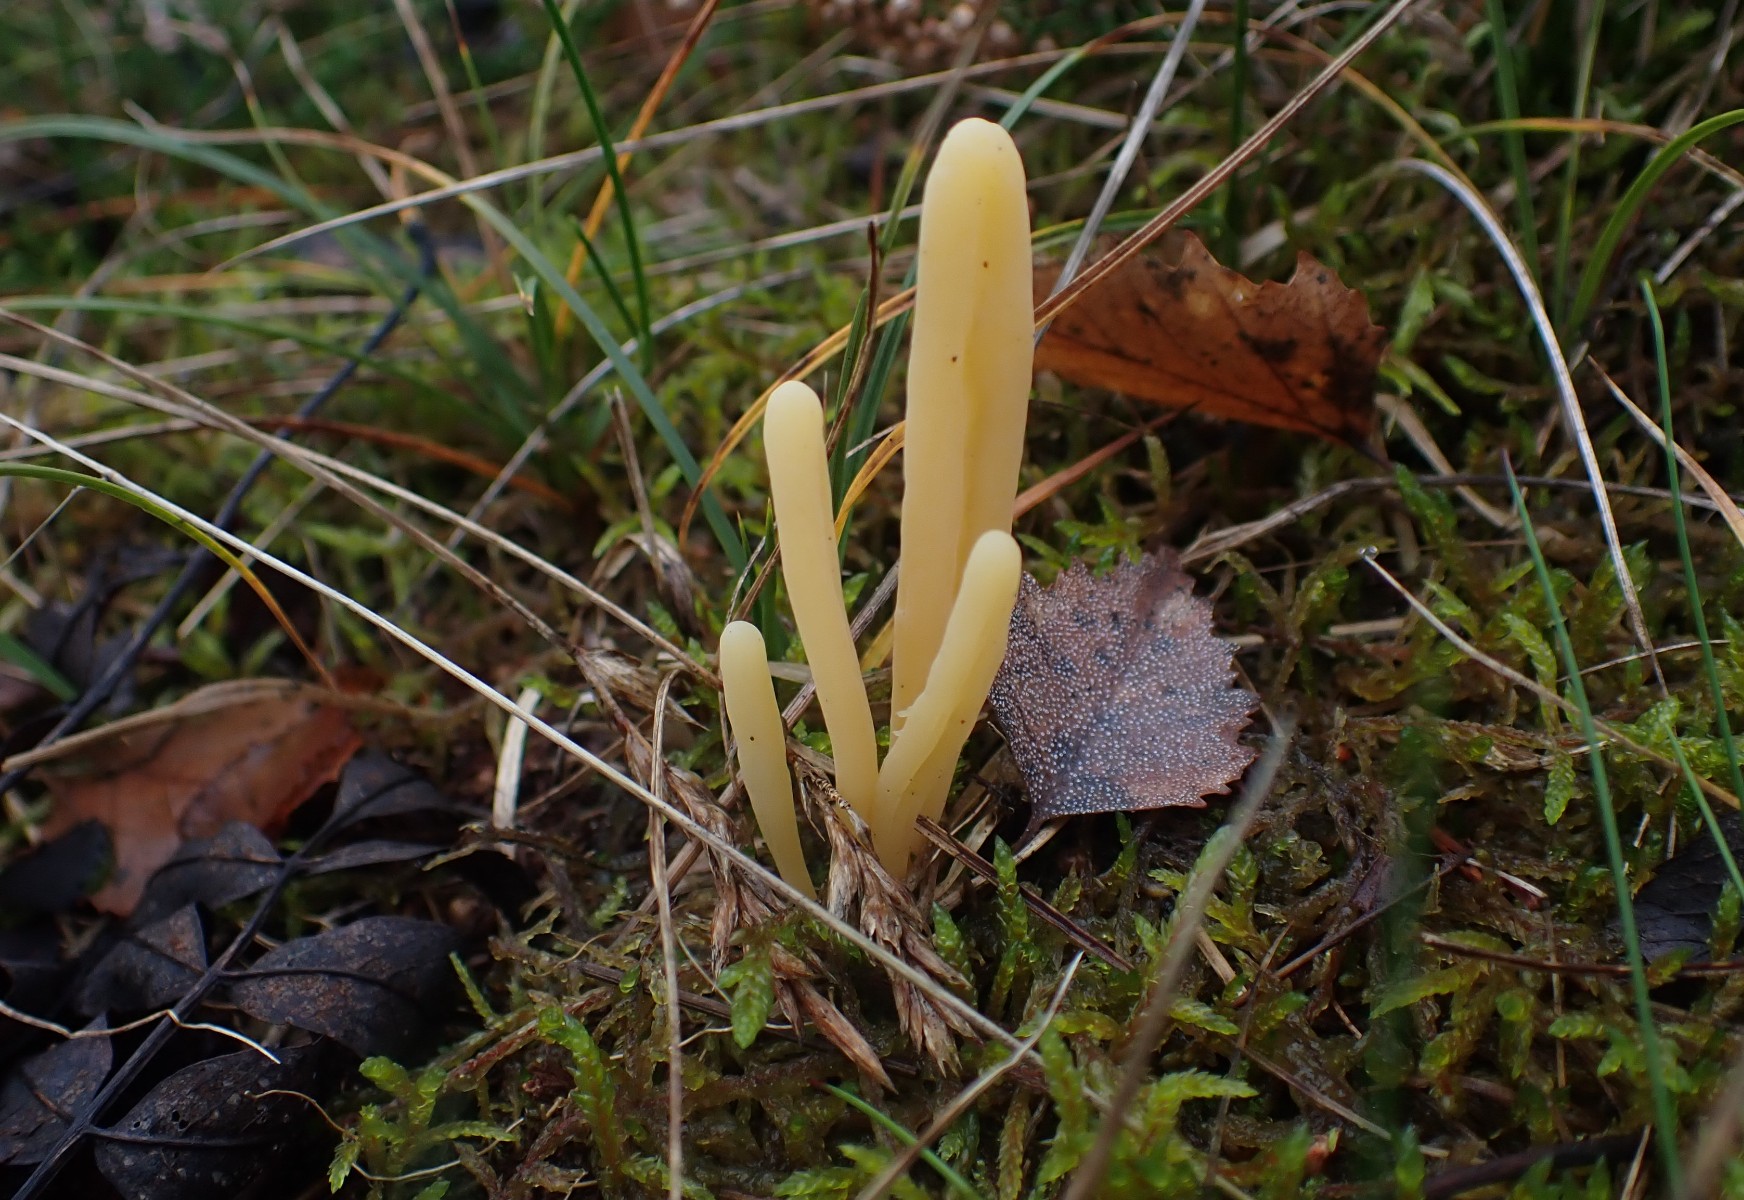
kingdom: Fungi
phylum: Basidiomycota
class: Agaricomycetes
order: Agaricales
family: Clavariaceae
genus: Clavaria
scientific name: Clavaria argillacea
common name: lerfarvet køllesvamp
